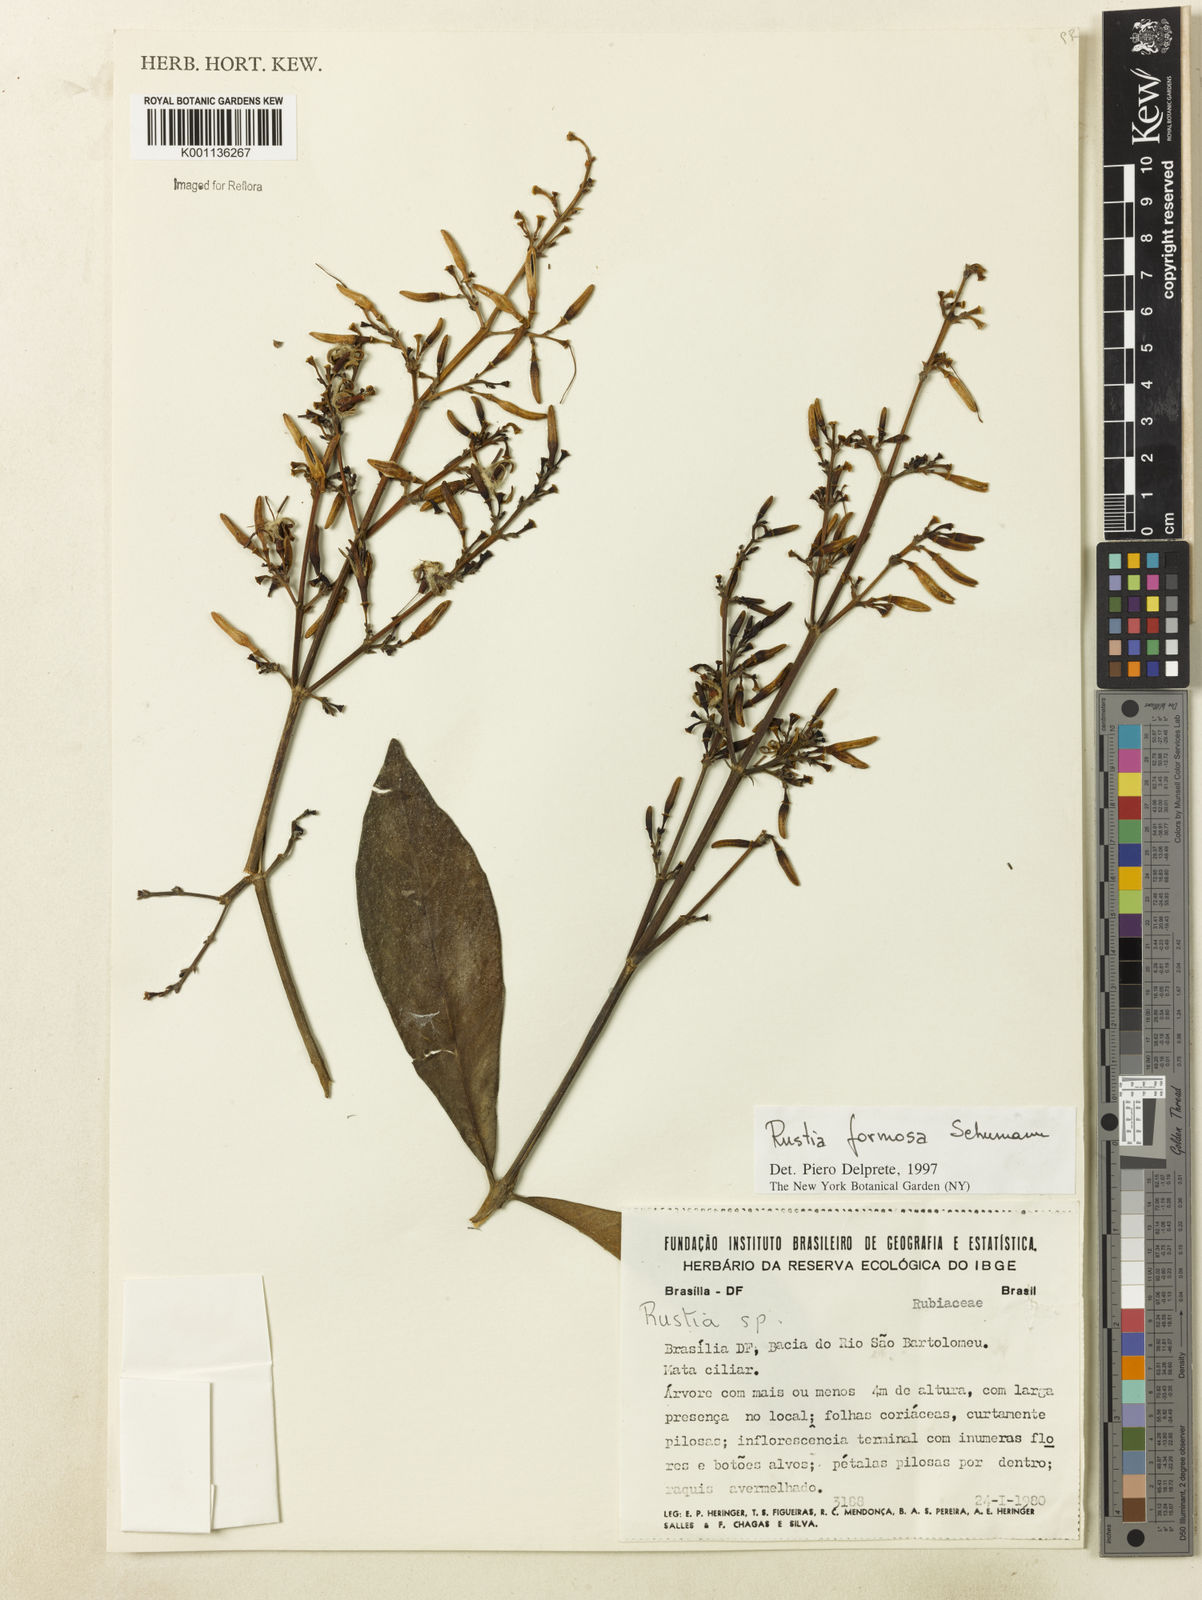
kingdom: Plantae
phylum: Tracheophyta
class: Magnoliopsida
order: Gentianales
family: Rubiaceae
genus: Rustia
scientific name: Rustia formosa
